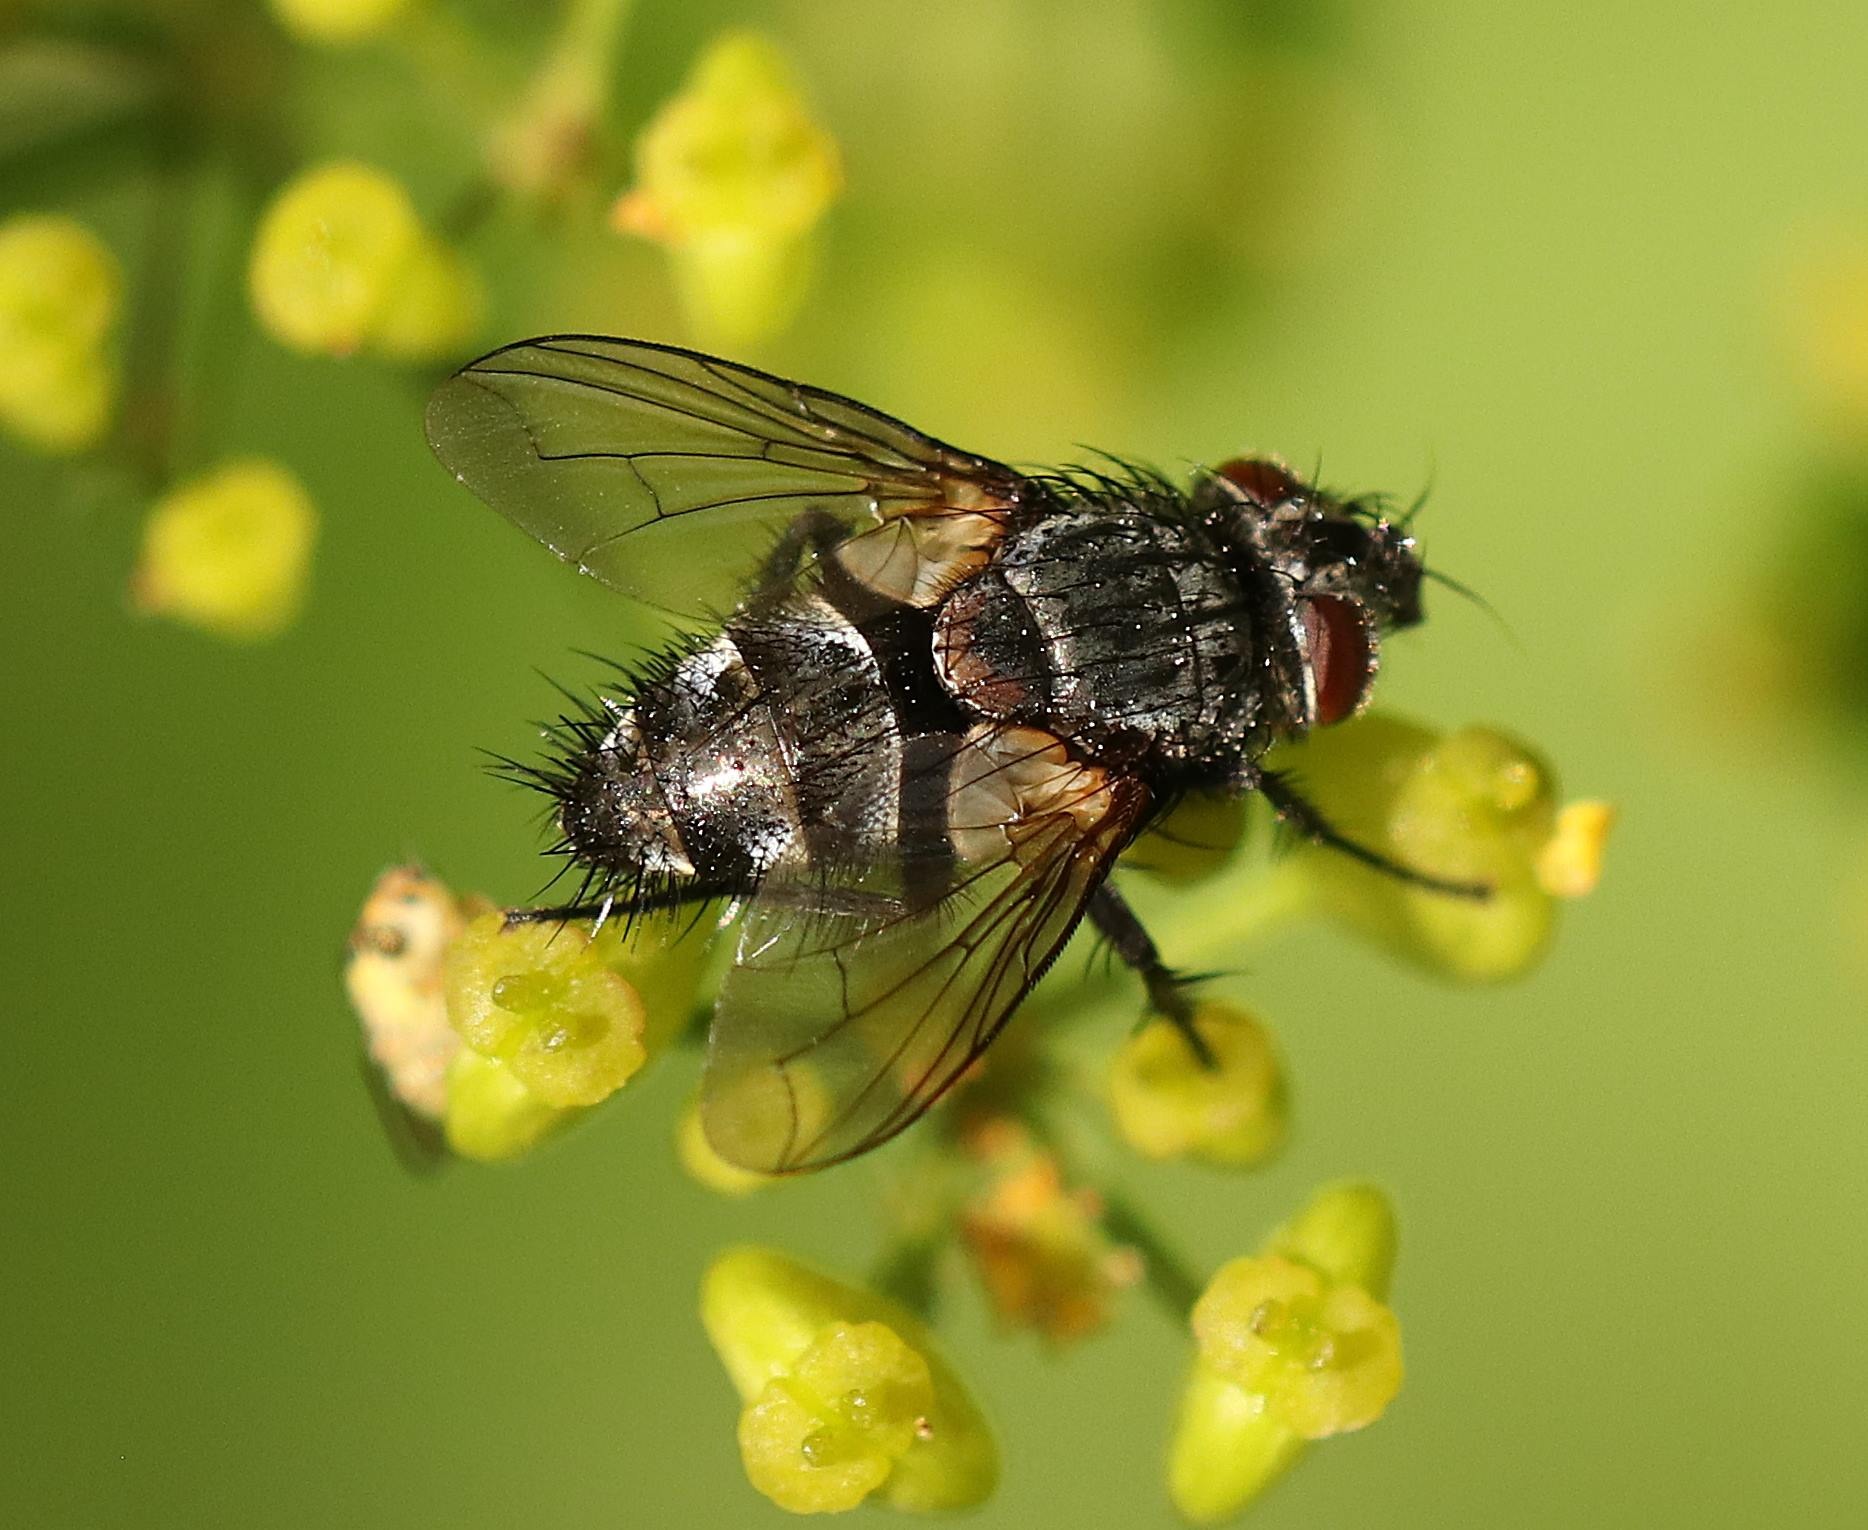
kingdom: Animalia
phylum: Arthropoda
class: Insecta
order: Diptera
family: Tachinidae
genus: Phryxe
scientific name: Phryxe
